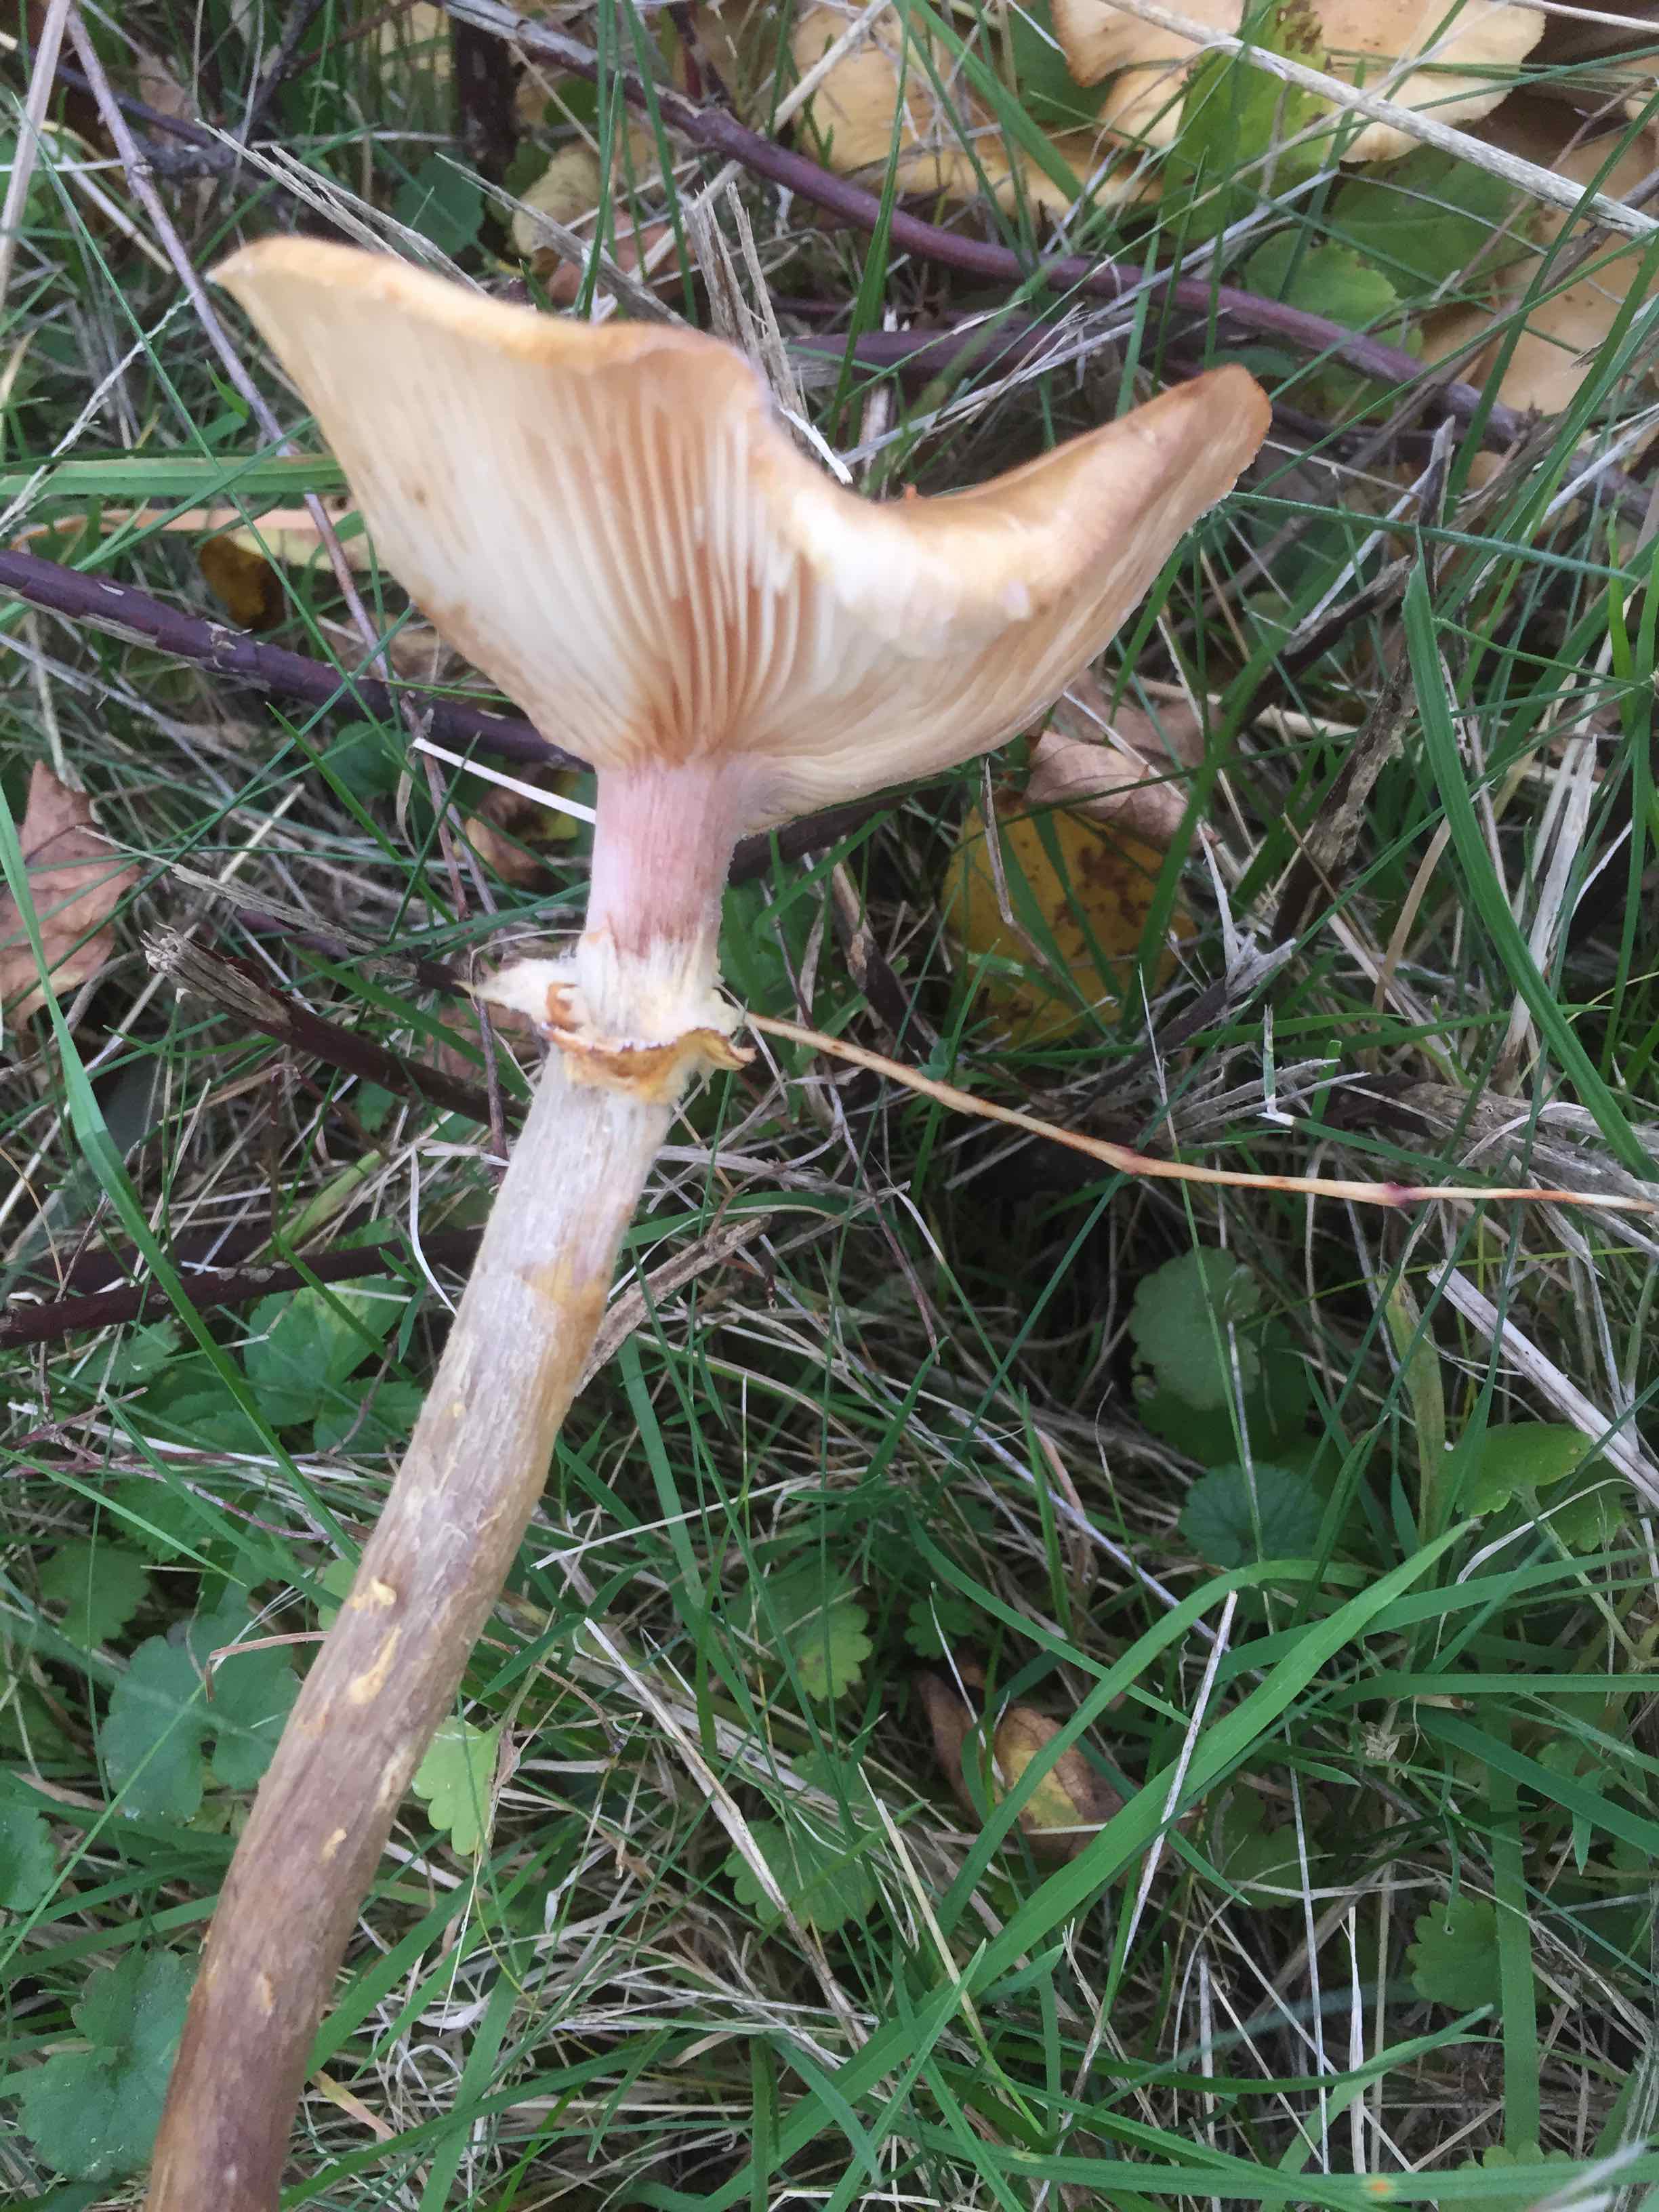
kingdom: Fungi
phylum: Basidiomycota
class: Agaricomycetes
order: Agaricales
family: Physalacriaceae
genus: Armillaria
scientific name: Armillaria
